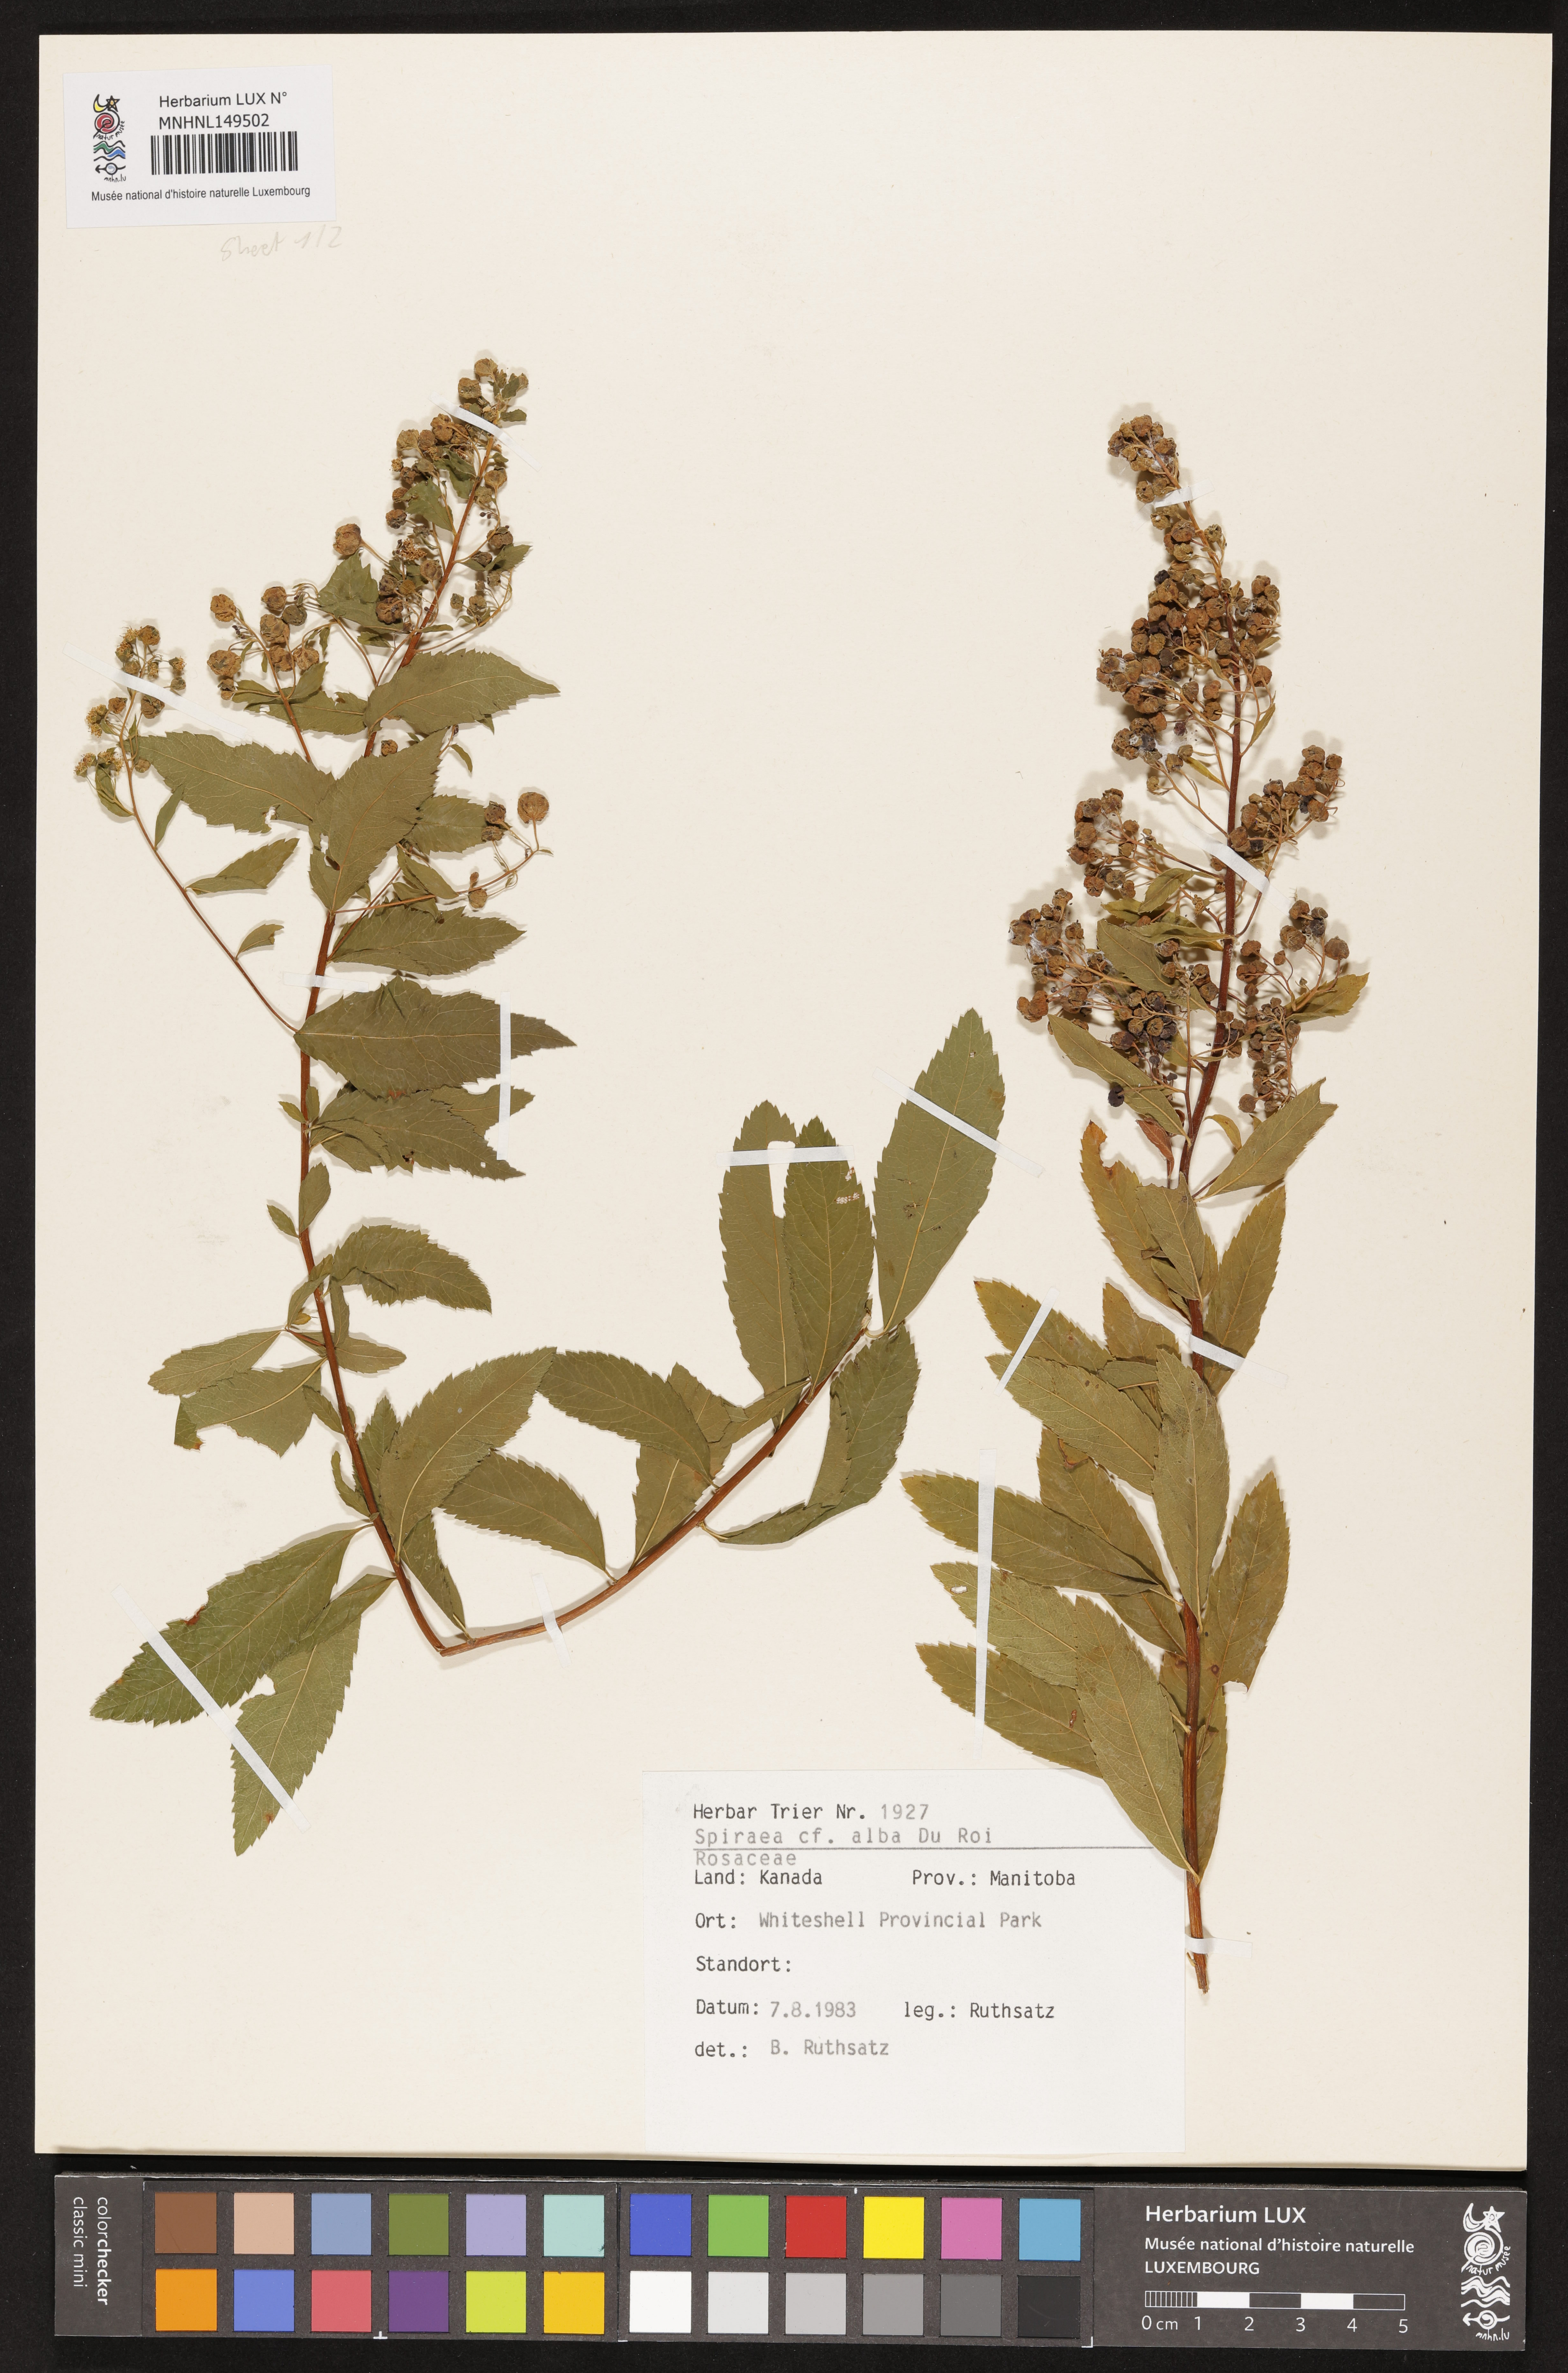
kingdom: Plantae
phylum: Tracheophyta
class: Magnoliopsida
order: Rosales
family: Rosaceae
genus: Spiraea
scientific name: Spiraea alba
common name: Pale bridewort
